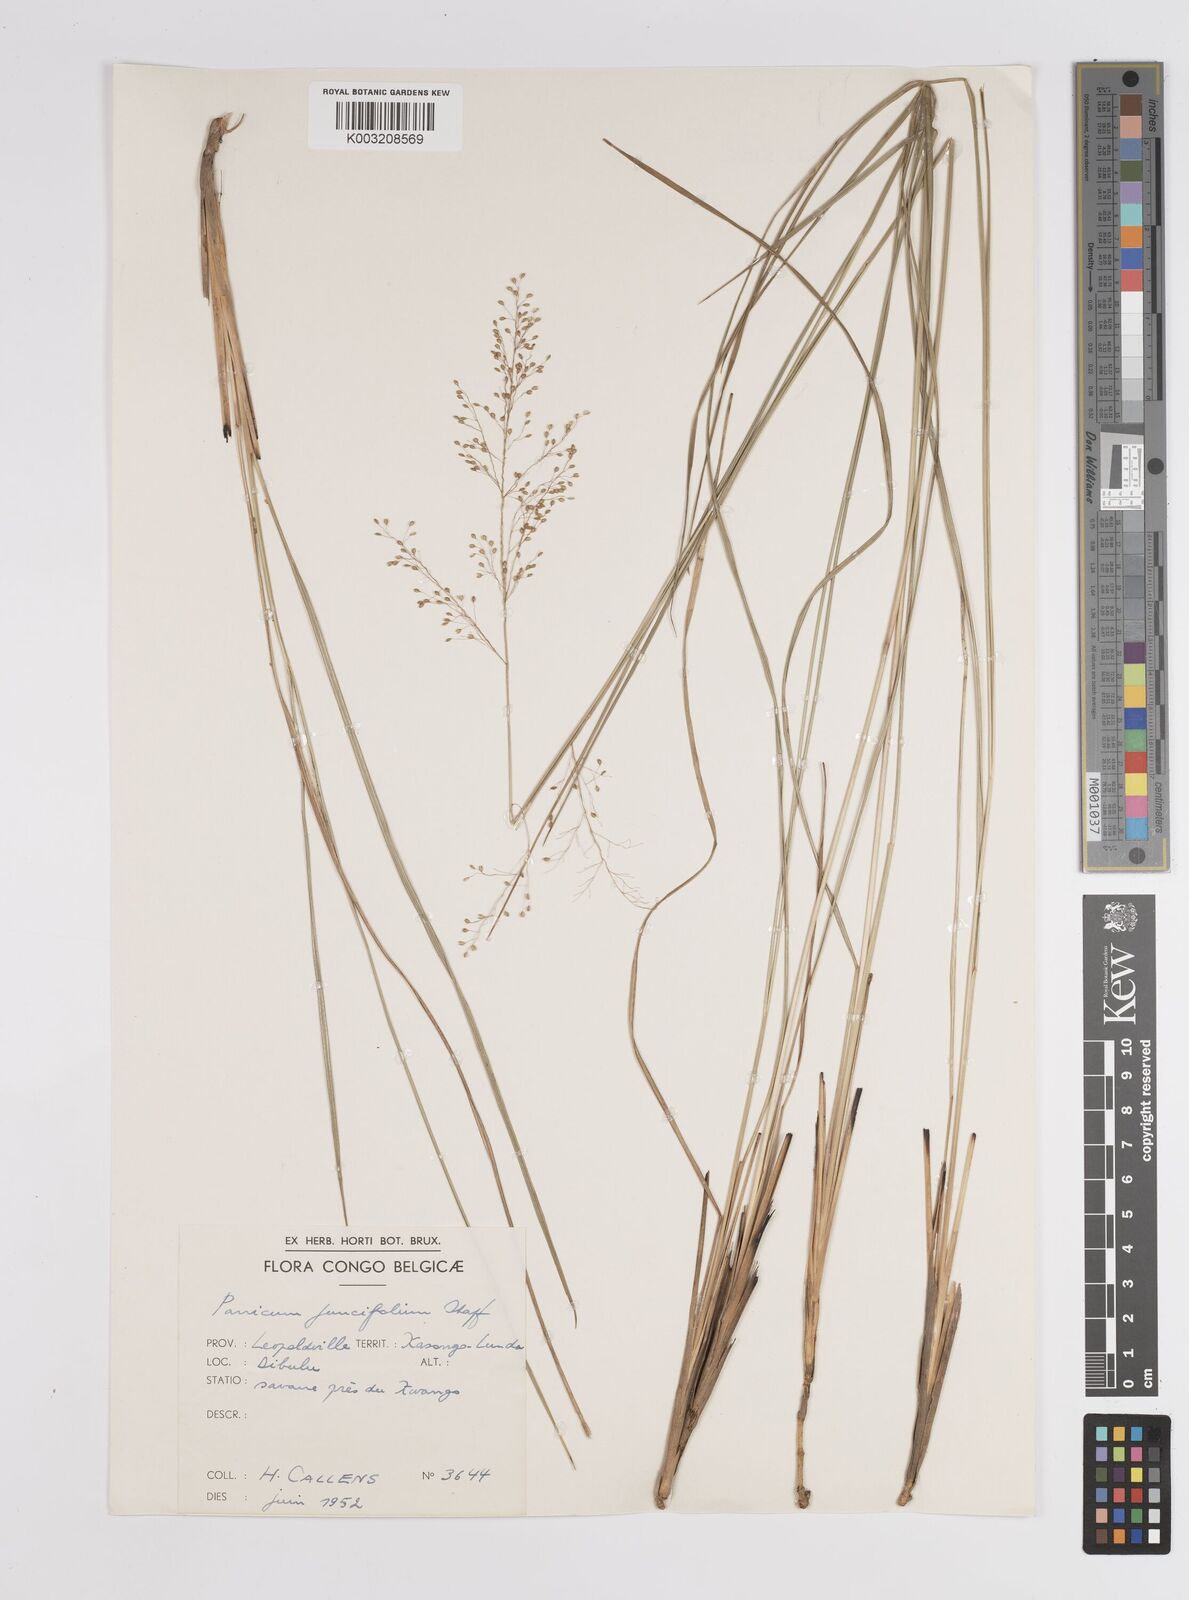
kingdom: Plantae
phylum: Tracheophyta
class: Liliopsida
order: Poales
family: Poaceae
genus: Trichanthecium
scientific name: Trichanthecium natalense
